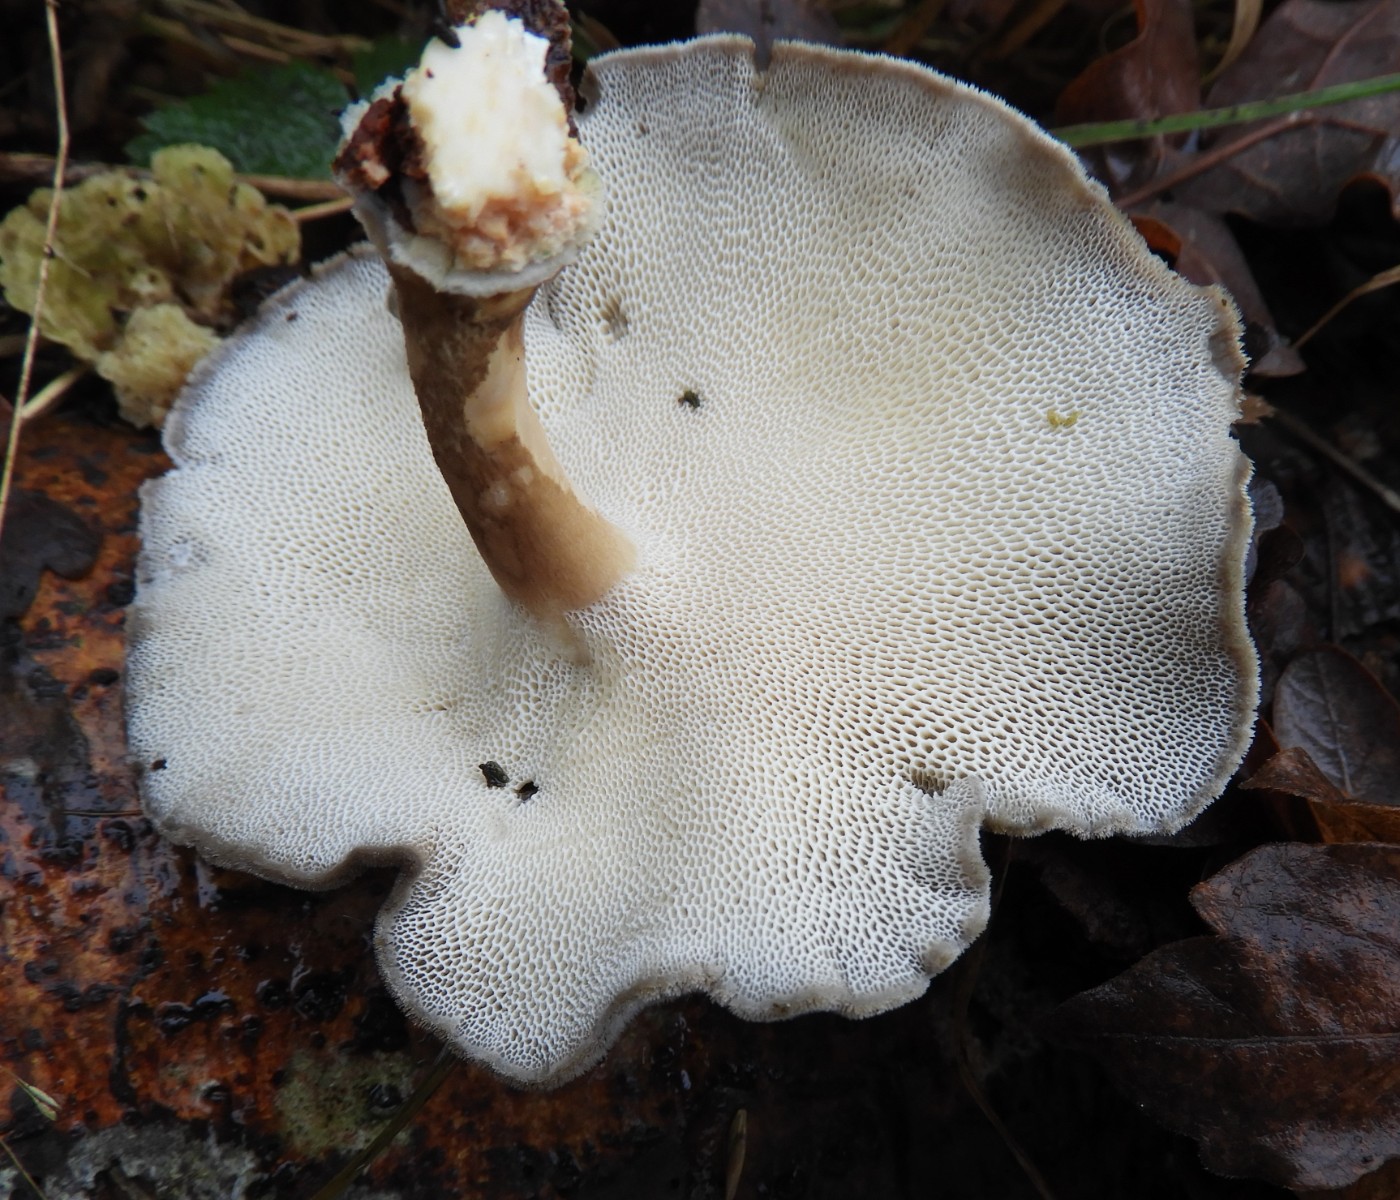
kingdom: Fungi
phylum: Basidiomycota
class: Agaricomycetes
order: Polyporales
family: Polyporaceae
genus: Lentinus
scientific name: Lentinus brumalis
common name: vinter-stilkporesvamp
